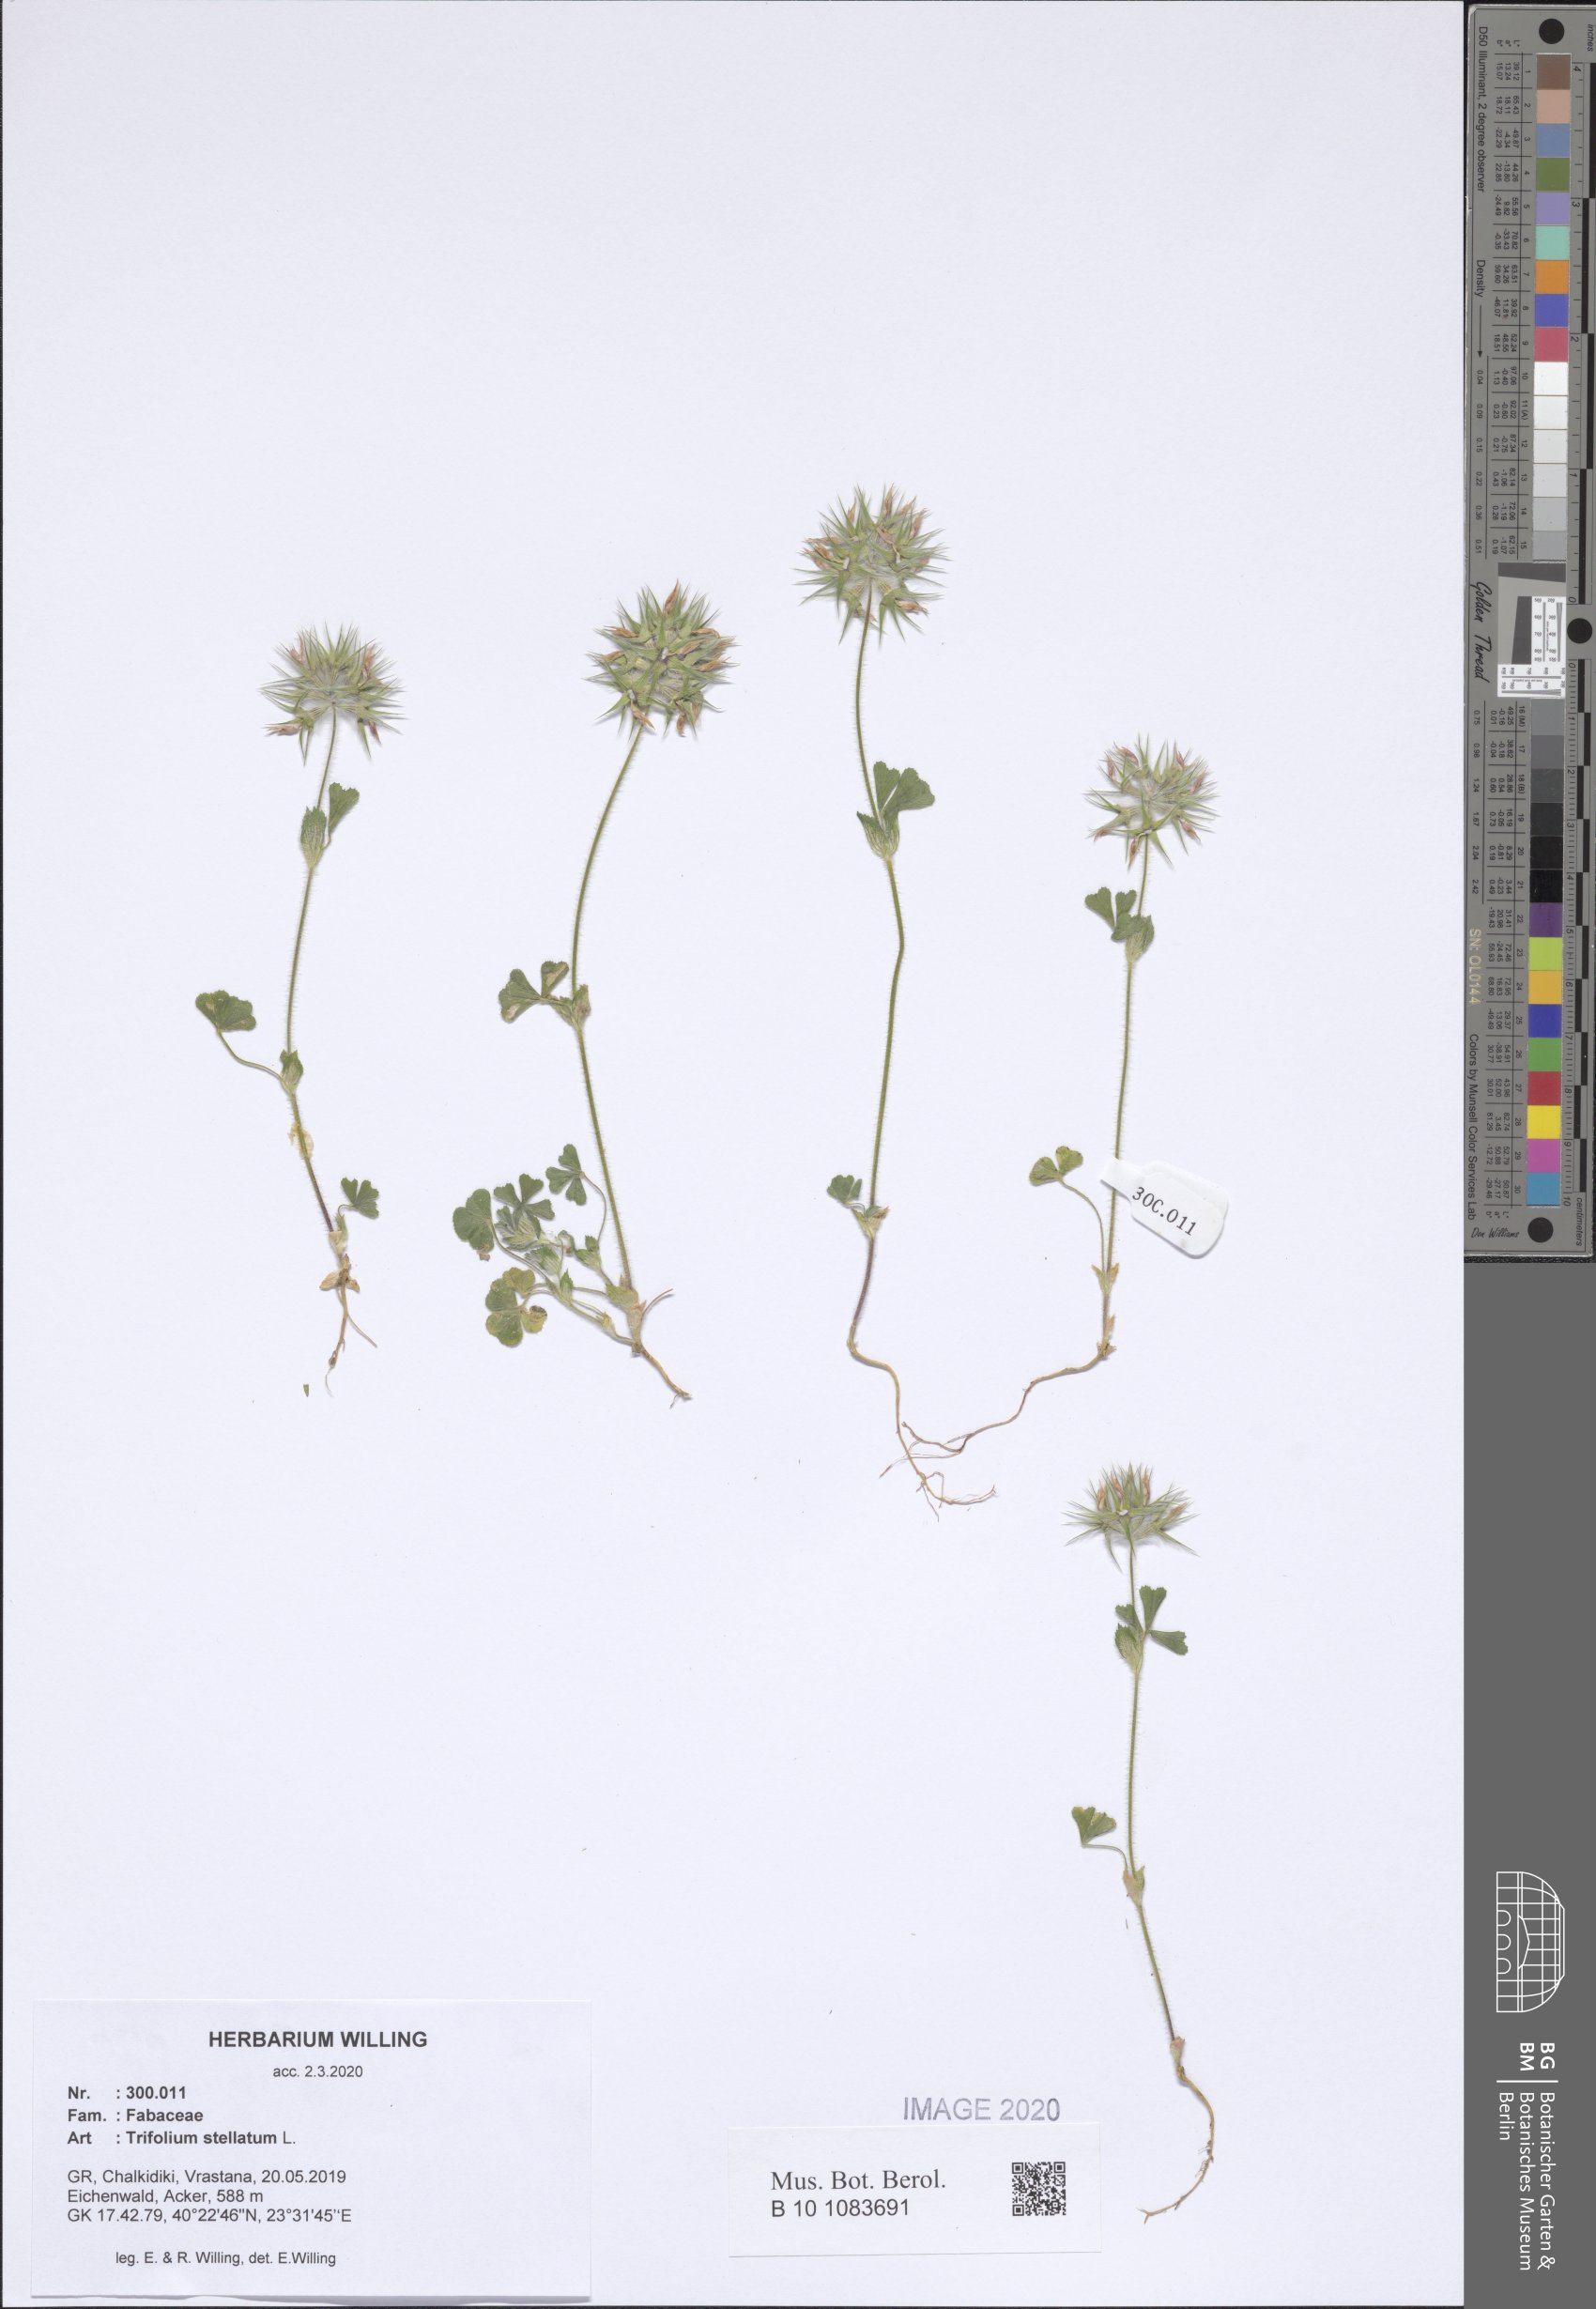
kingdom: Plantae
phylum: Tracheophyta
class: Magnoliopsida
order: Fabales
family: Fabaceae
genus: Trifolium
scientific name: Trifolium stellatum
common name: Starry clover
